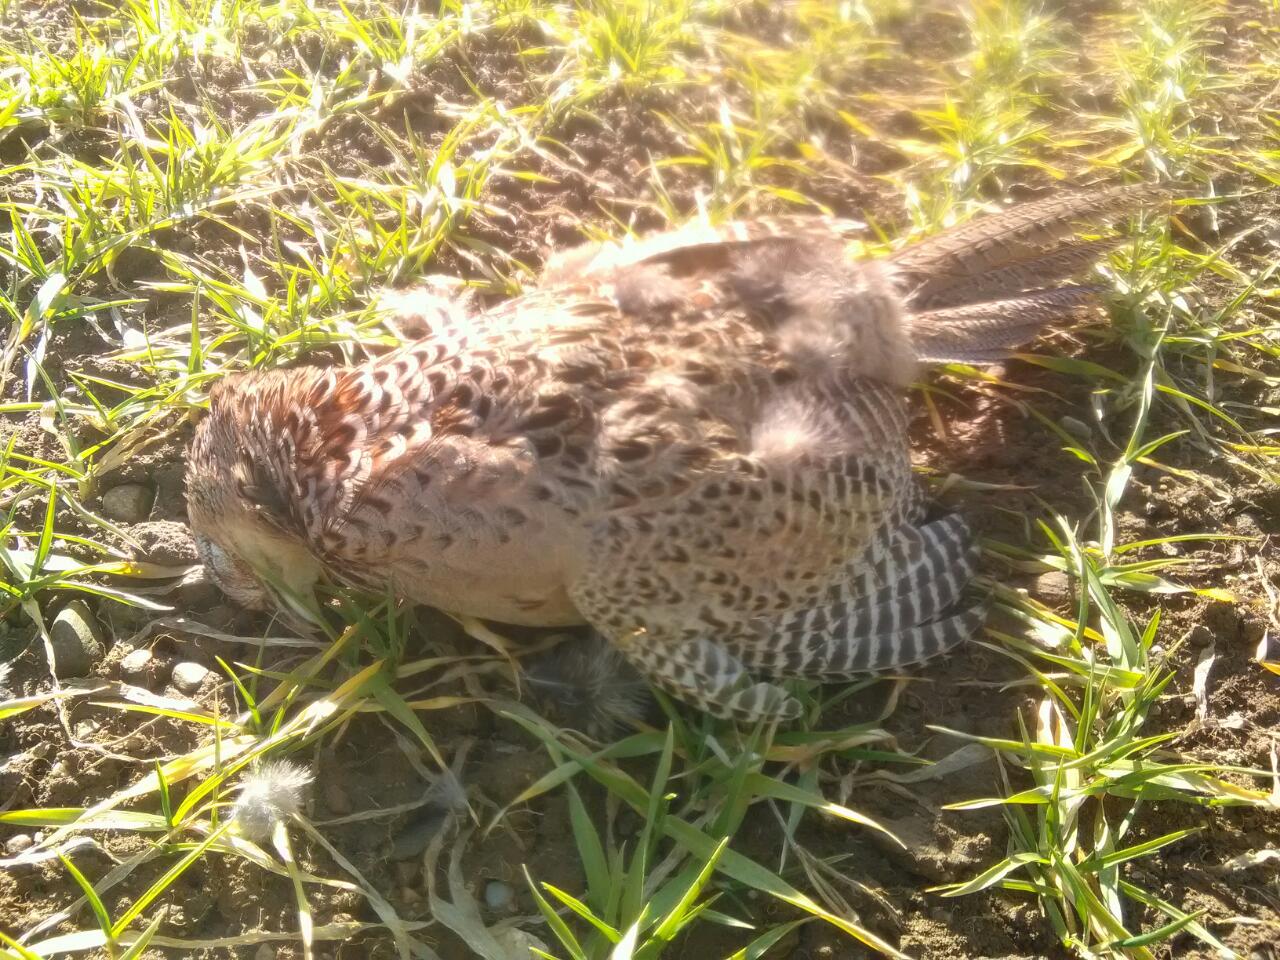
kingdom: Animalia
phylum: Chordata
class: Aves
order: Galliformes
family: Phasianidae
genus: Phasianus
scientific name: Phasianus colchicus
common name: Common pheasant
